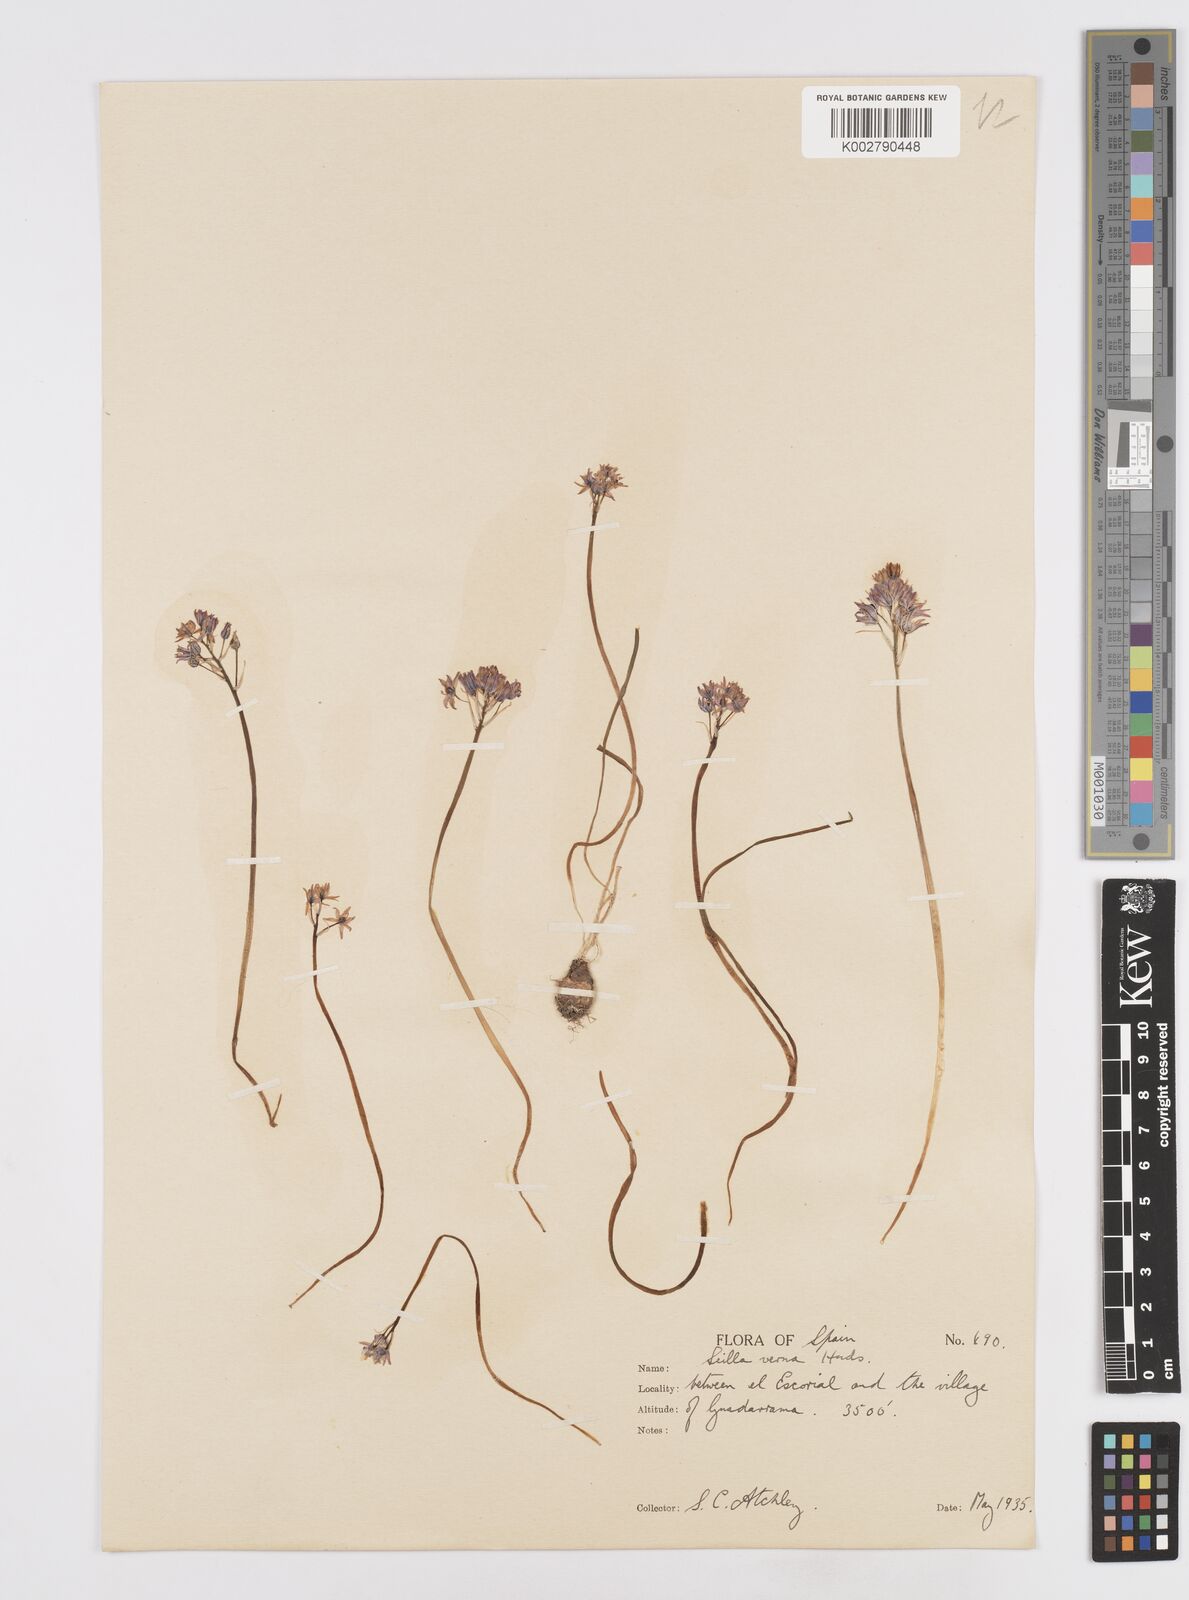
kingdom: Plantae
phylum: Tracheophyta
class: Liliopsida
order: Asparagales
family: Asparagaceae
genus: Scilla
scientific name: Scilla verna
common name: Spring squill
